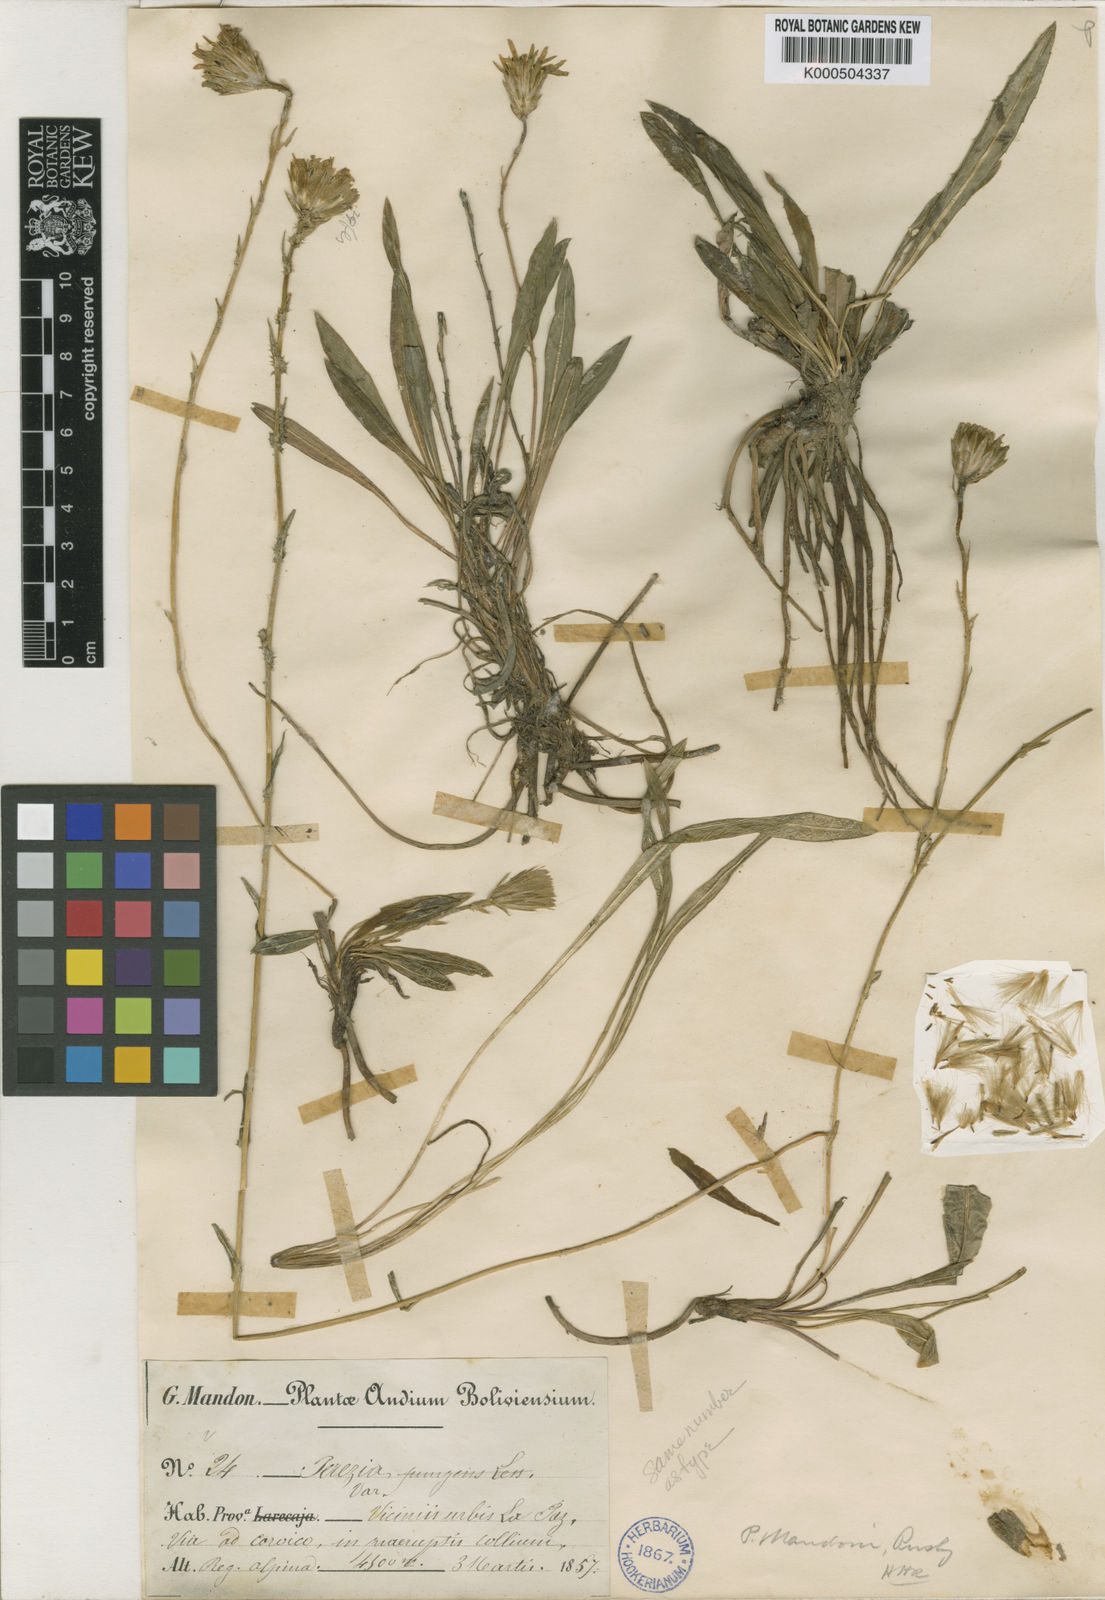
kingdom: Plantae
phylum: Tracheophyta
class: Magnoliopsida
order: Asterales
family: Asteraceae
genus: Perezia
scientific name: Perezia pungens
